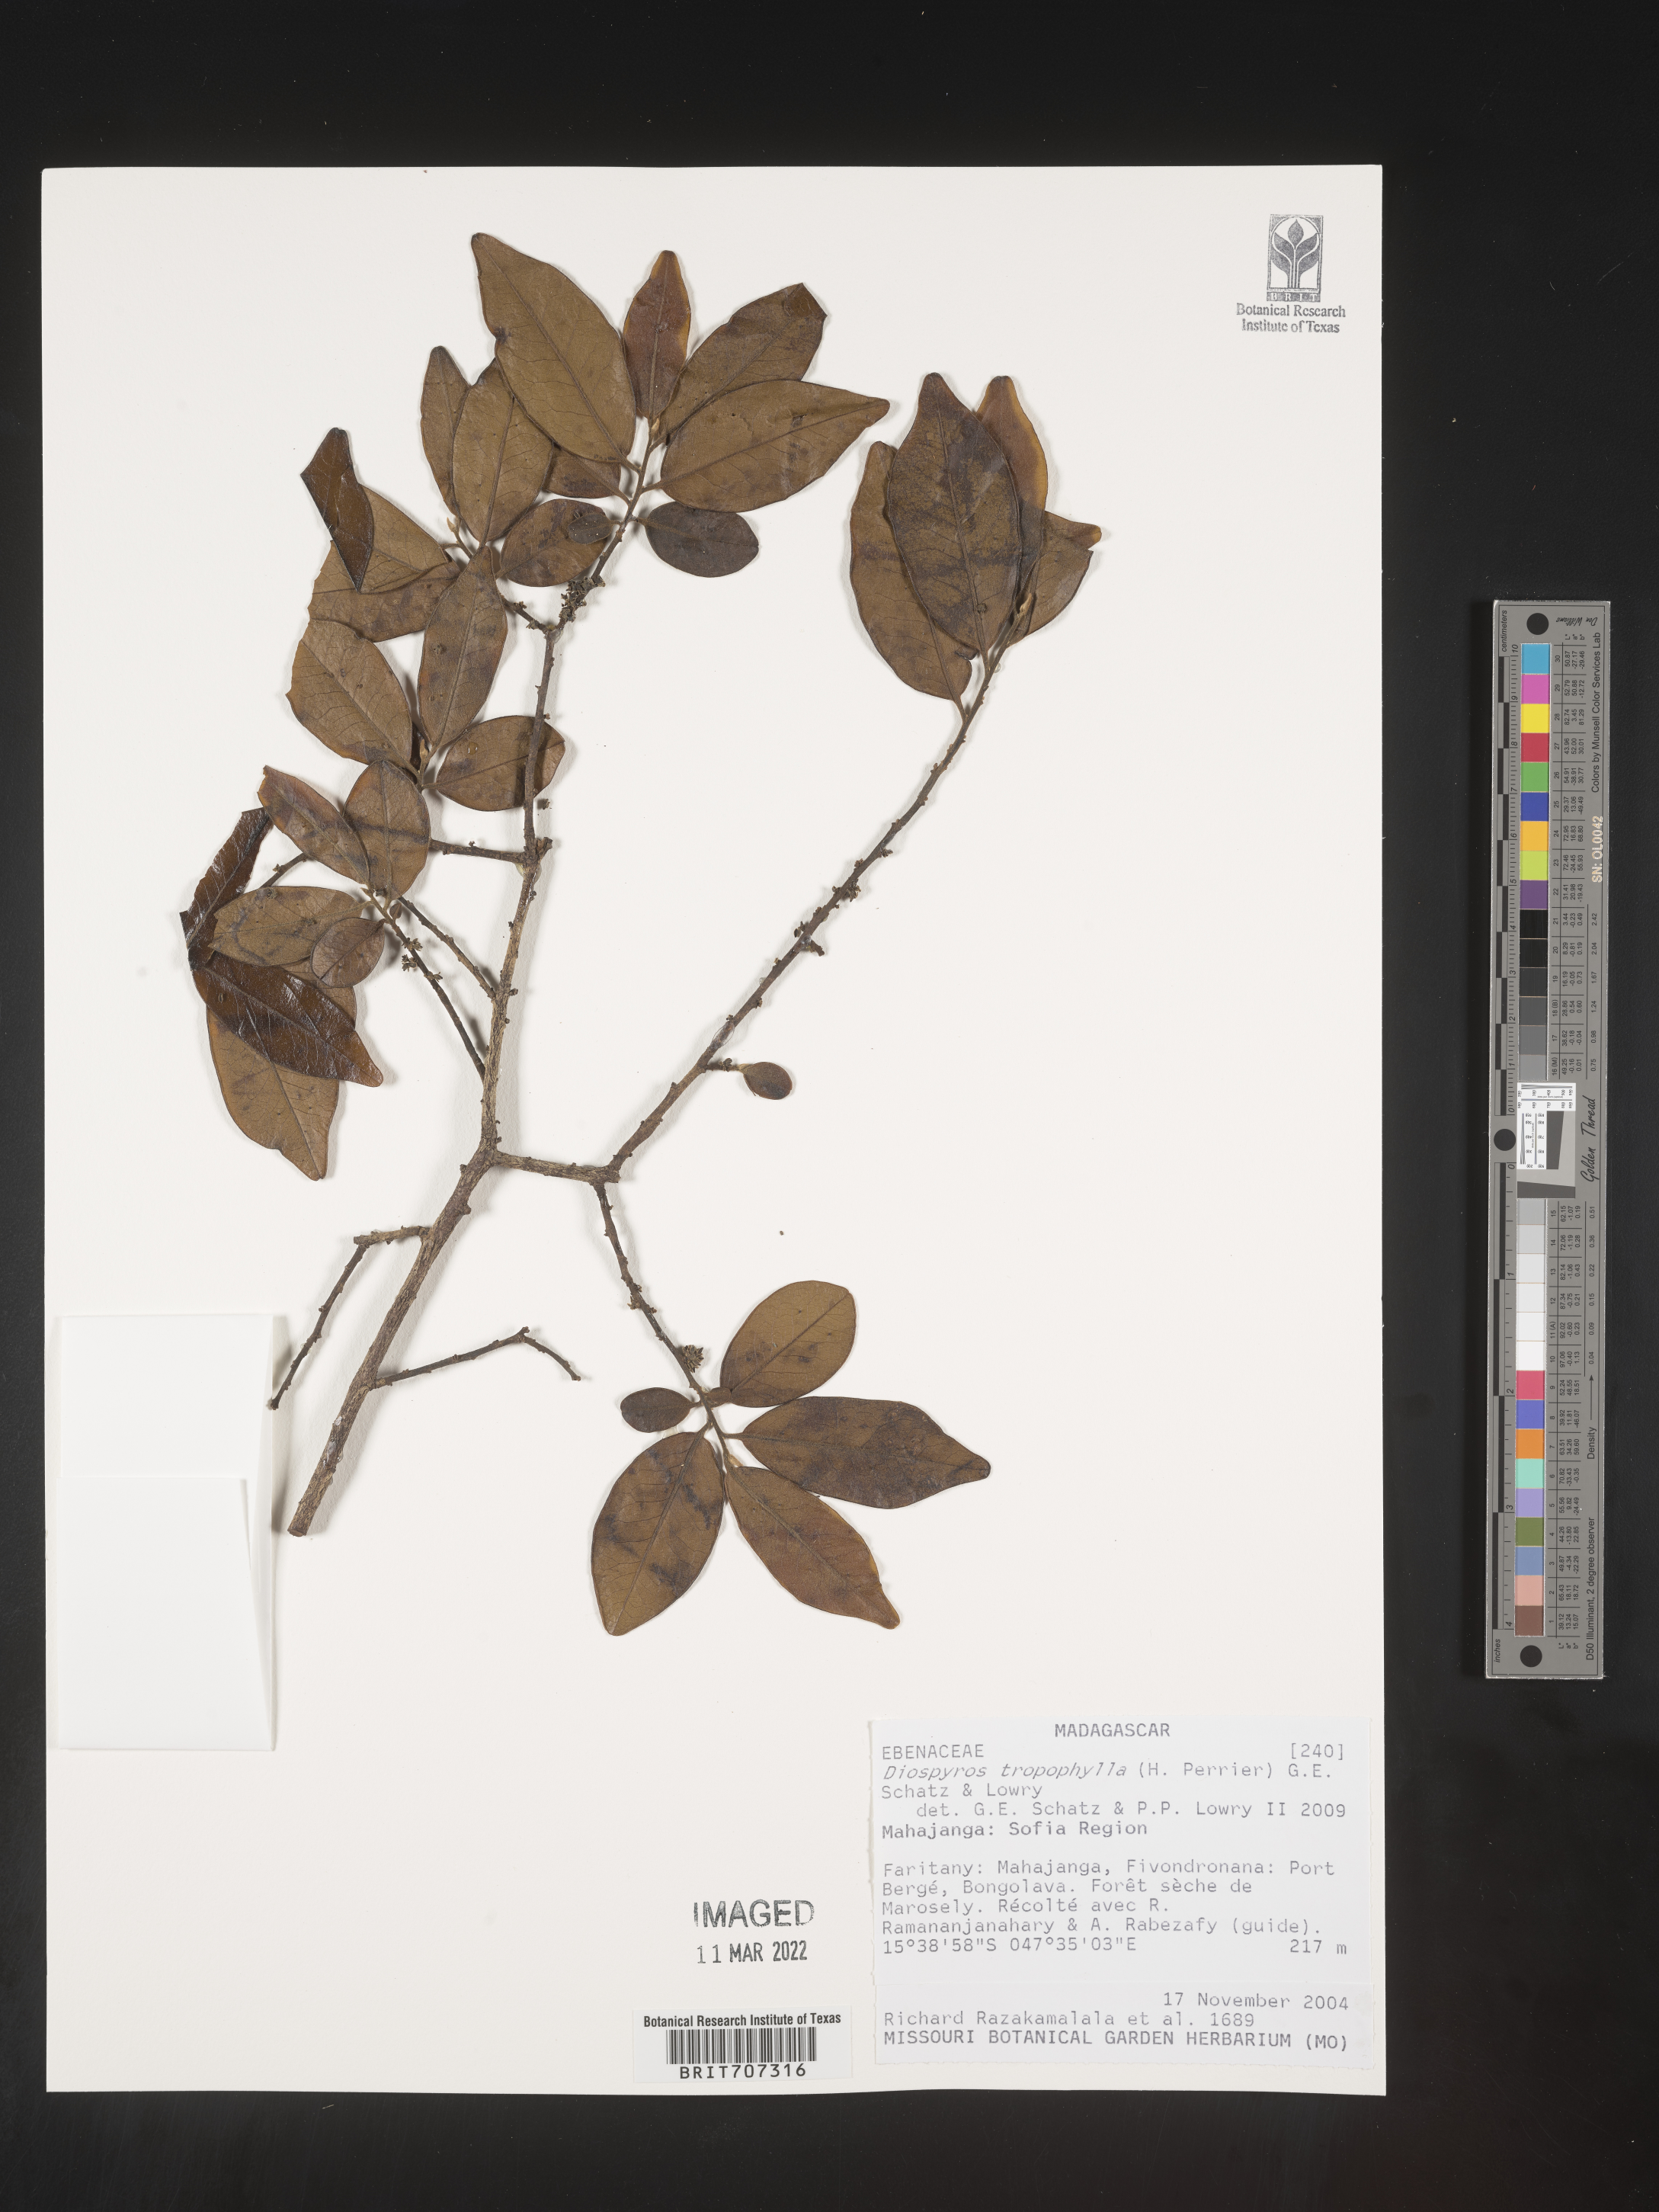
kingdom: Plantae
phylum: Tracheophyta
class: Magnoliopsida
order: Ericales
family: Ebenaceae
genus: Diospyros
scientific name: Diospyros
